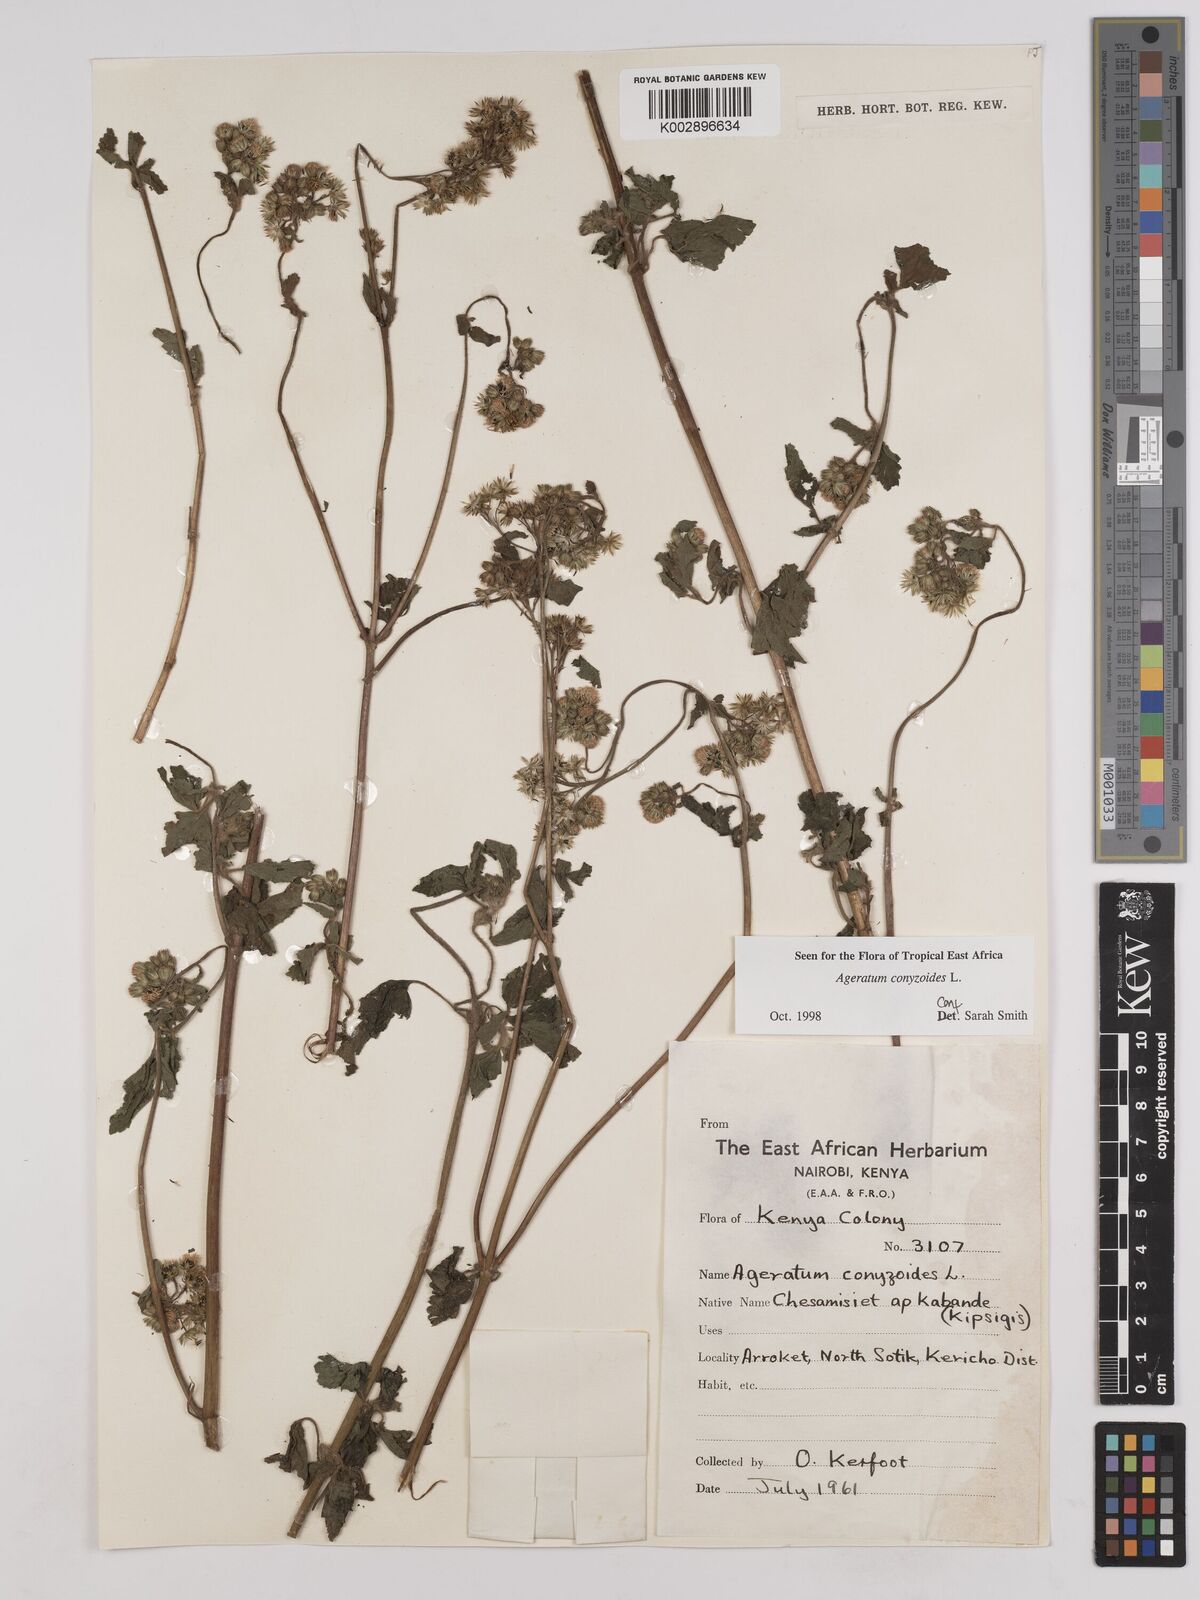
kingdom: Plantae
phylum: Tracheophyta
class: Magnoliopsida
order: Asterales
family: Asteraceae
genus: Ageratum
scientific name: Ageratum conyzoides
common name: Tropical whiteweed
